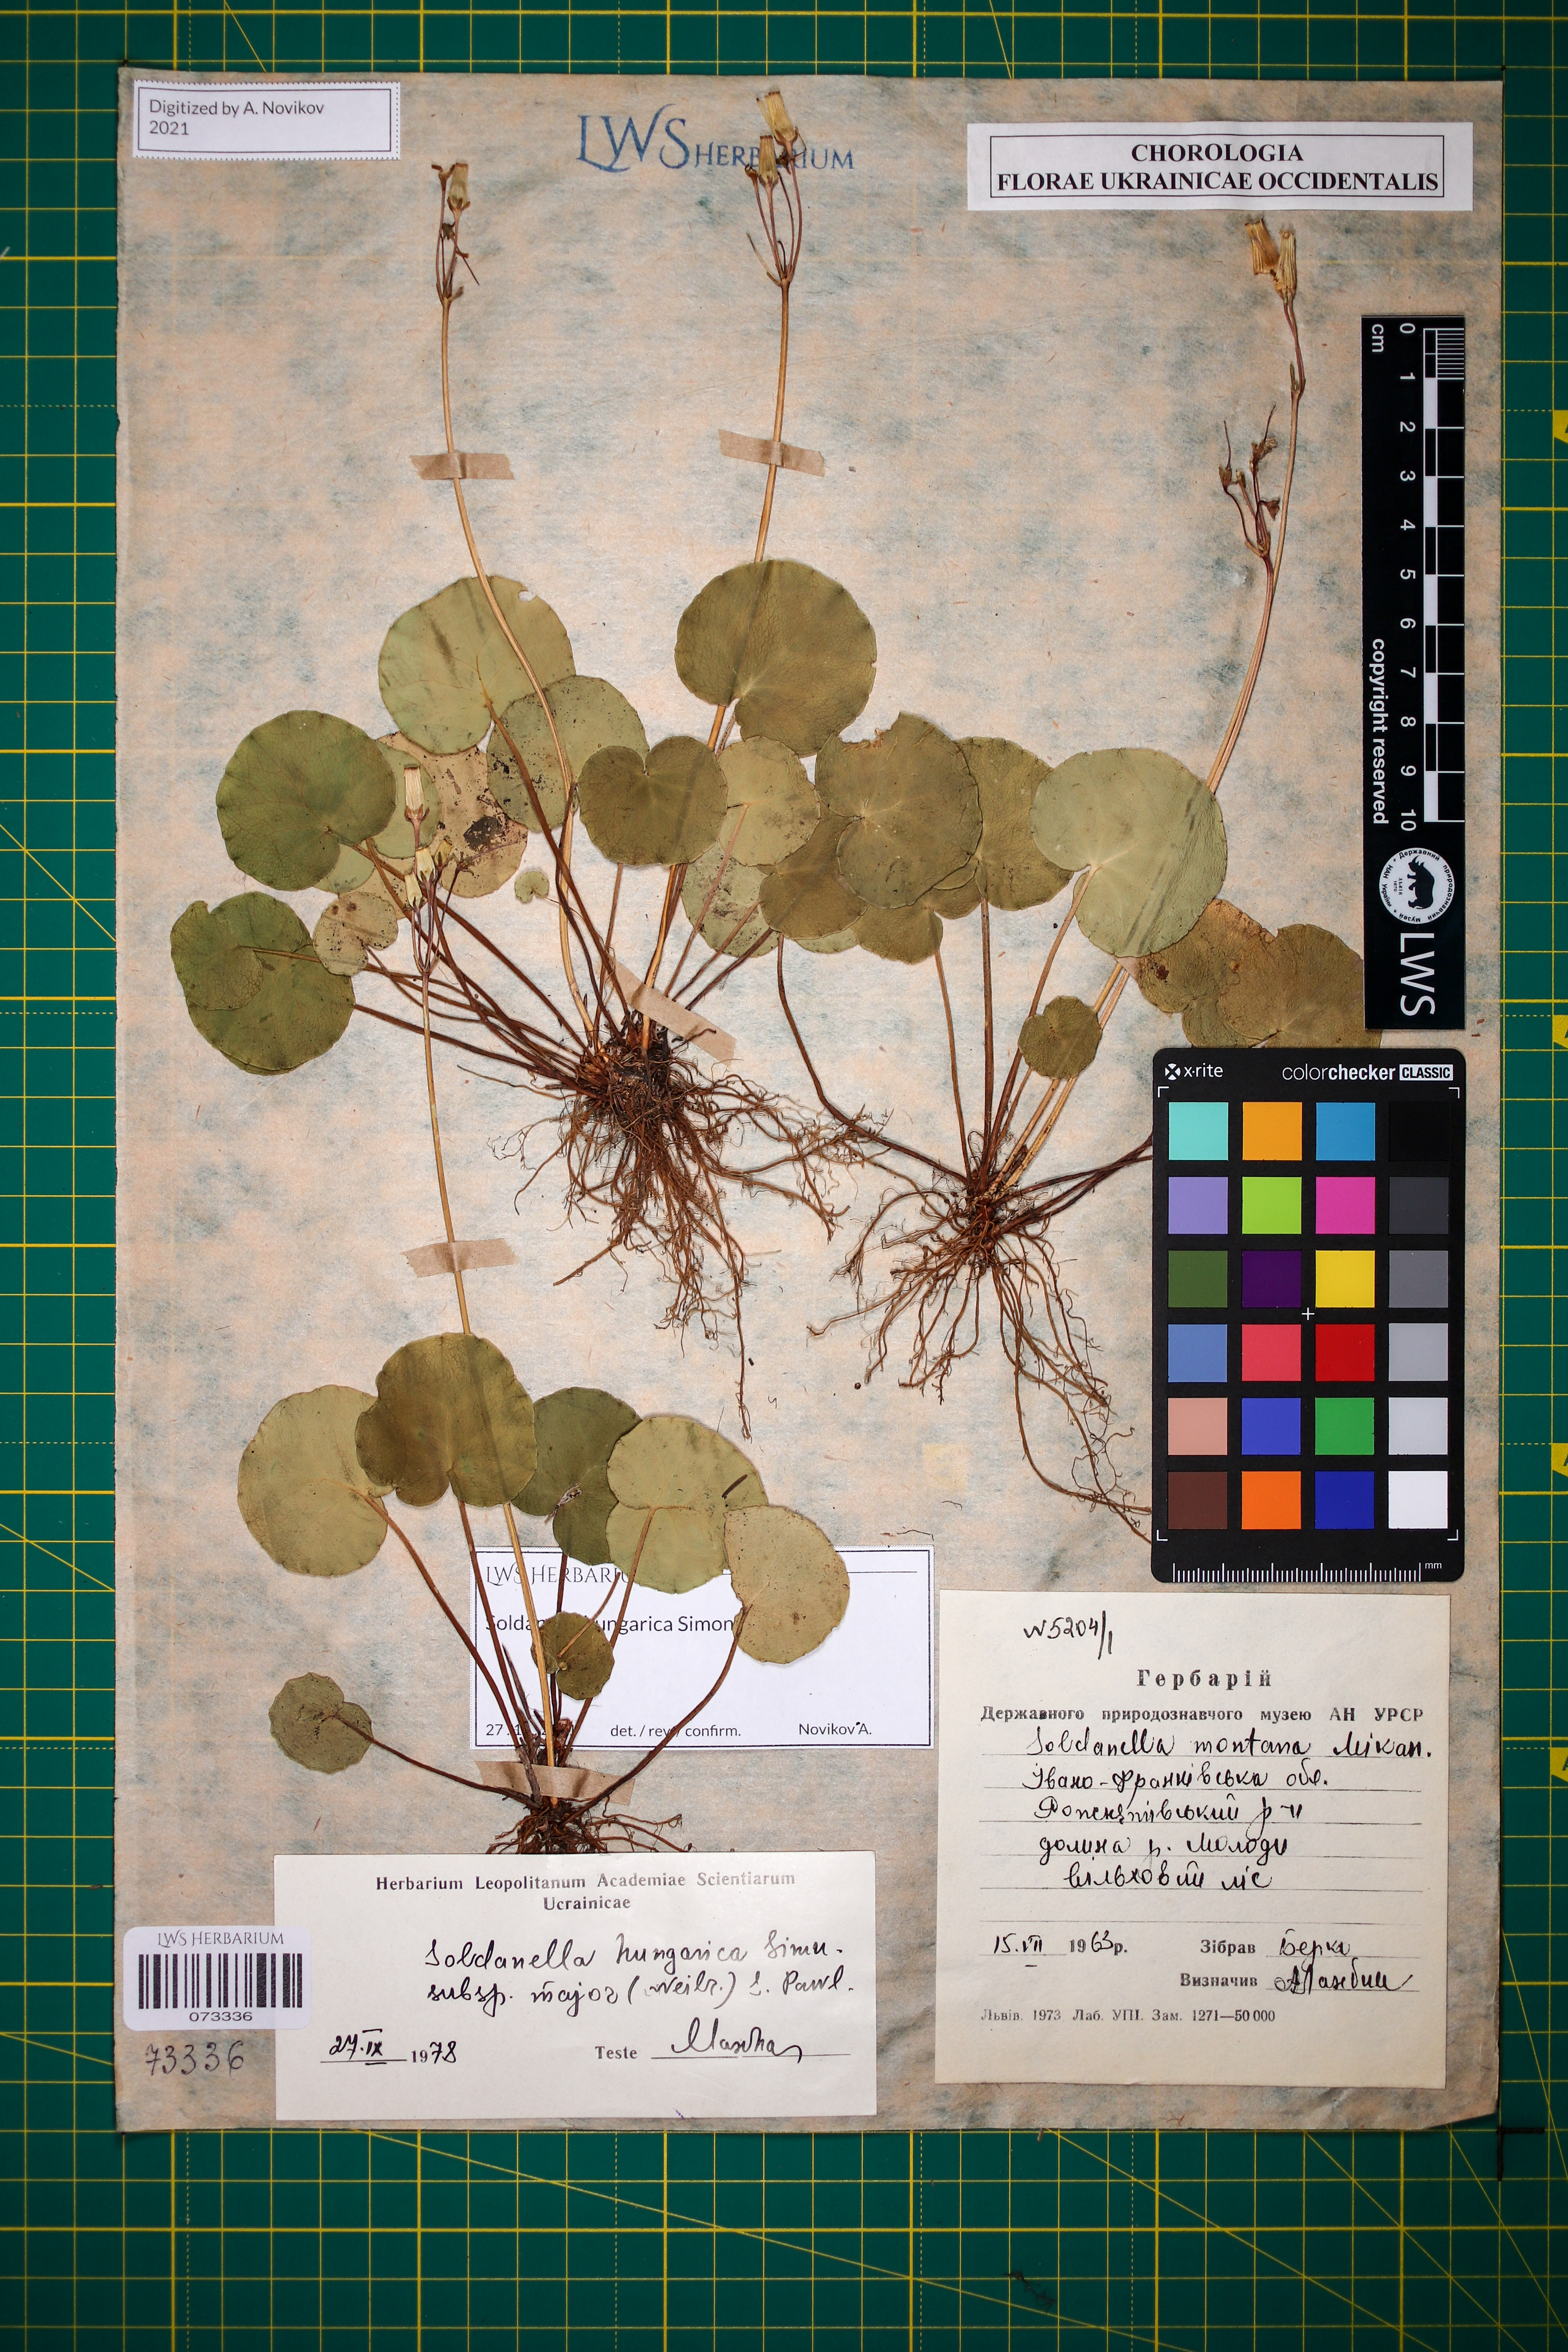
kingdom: Plantae
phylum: Tracheophyta
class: Magnoliopsida
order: Ericales
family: Primulaceae
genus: Soldanella
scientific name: Soldanella hungarica
